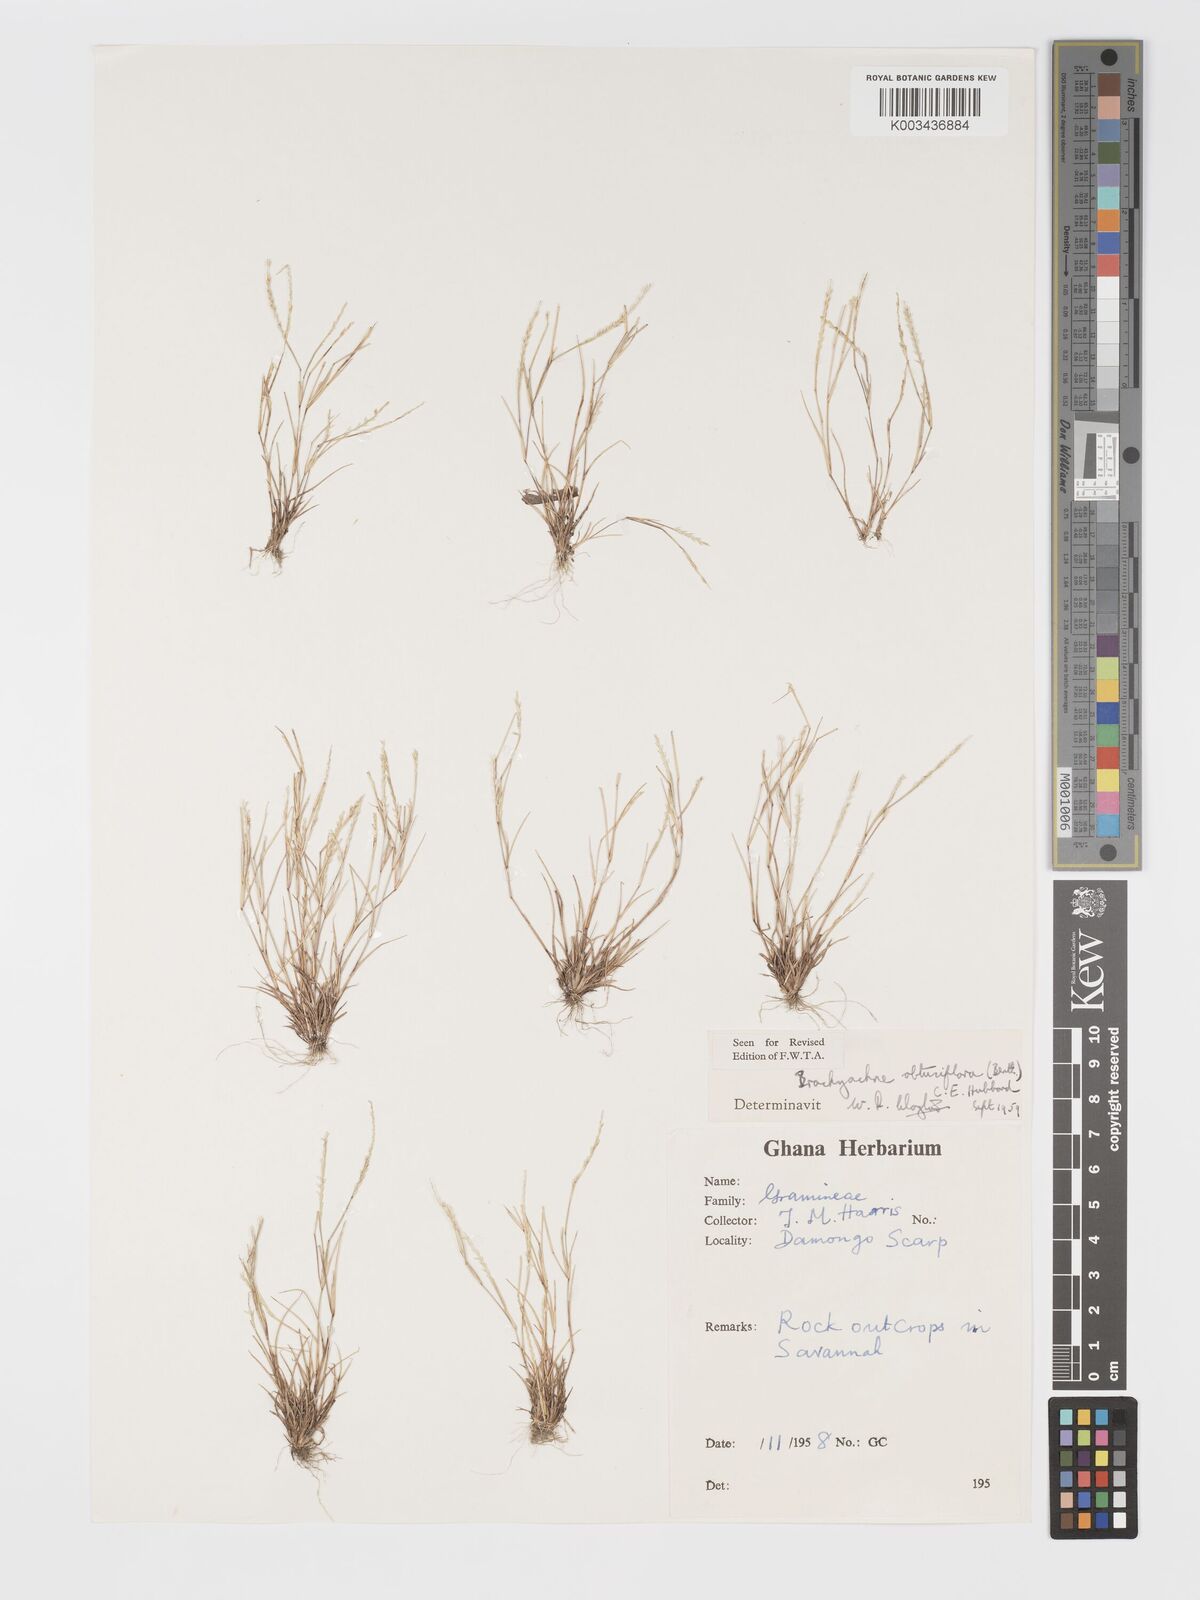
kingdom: Plantae
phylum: Tracheophyta
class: Liliopsida
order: Poales
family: Poaceae
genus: Micrachne
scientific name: Micrachne obtusiflora
